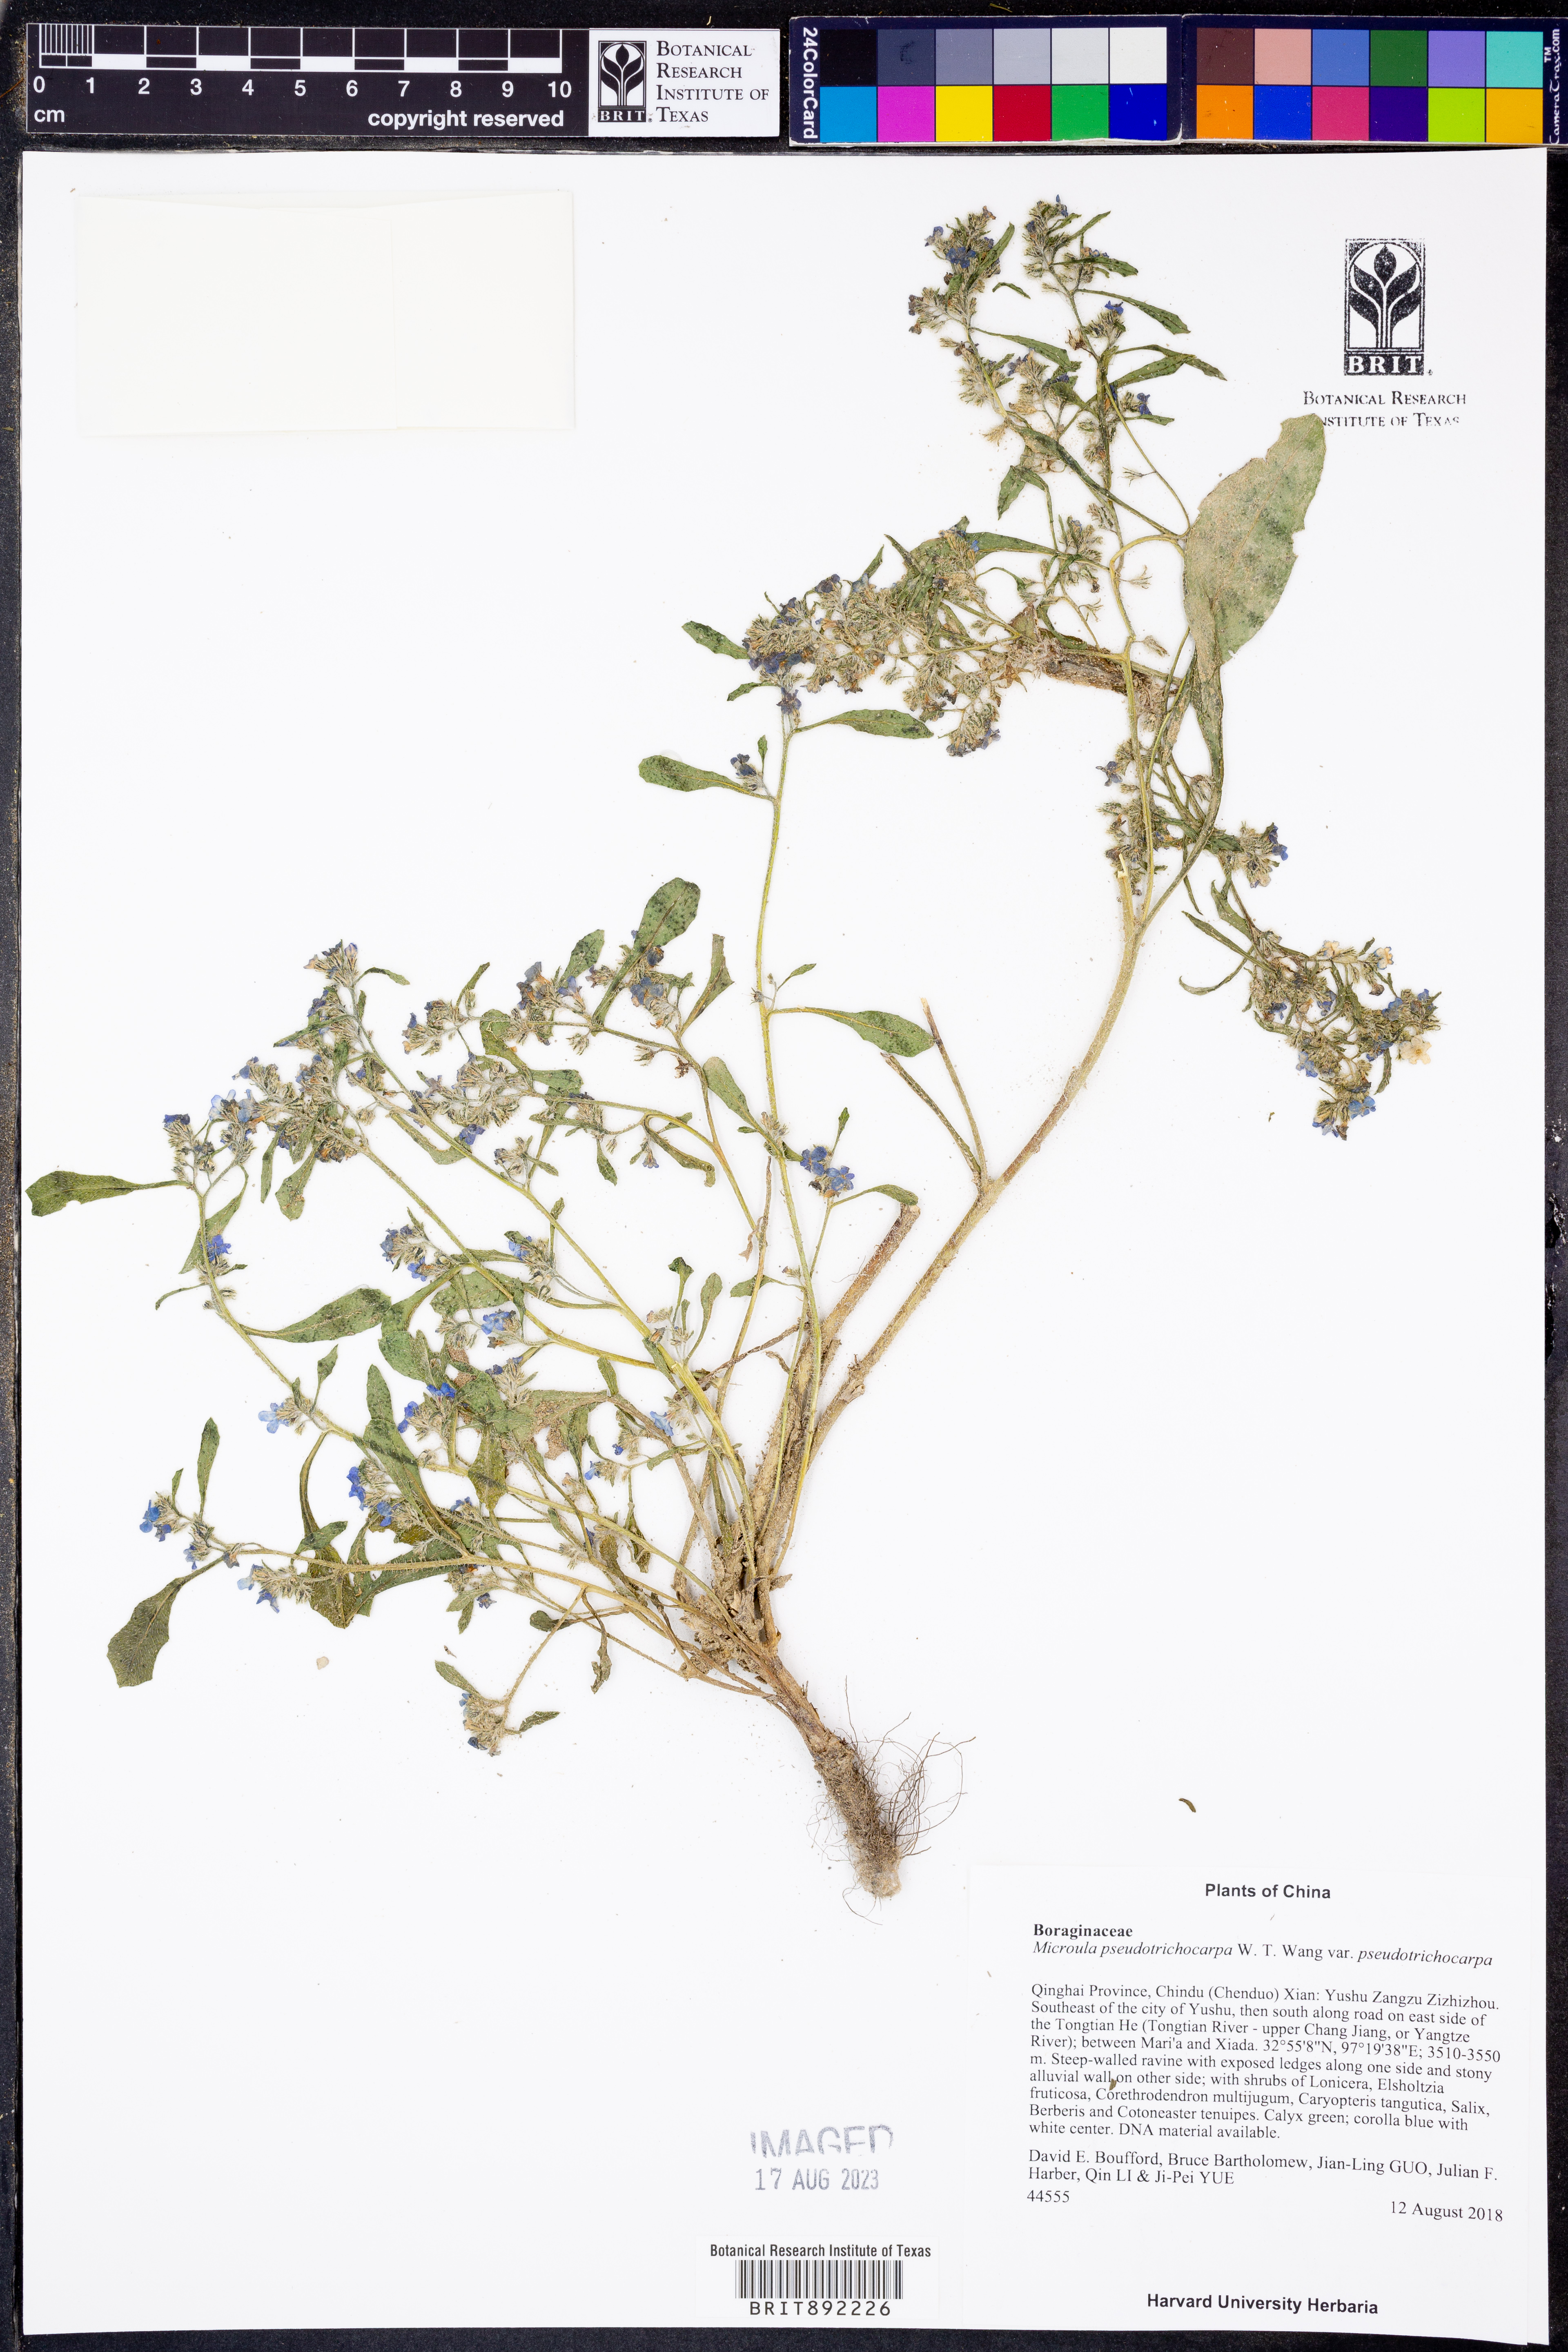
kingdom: Plantae
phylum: Tracheophyta
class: Magnoliopsida
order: Boraginales
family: Boraginaceae
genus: Microula
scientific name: Microula pseudotrichocarpa
